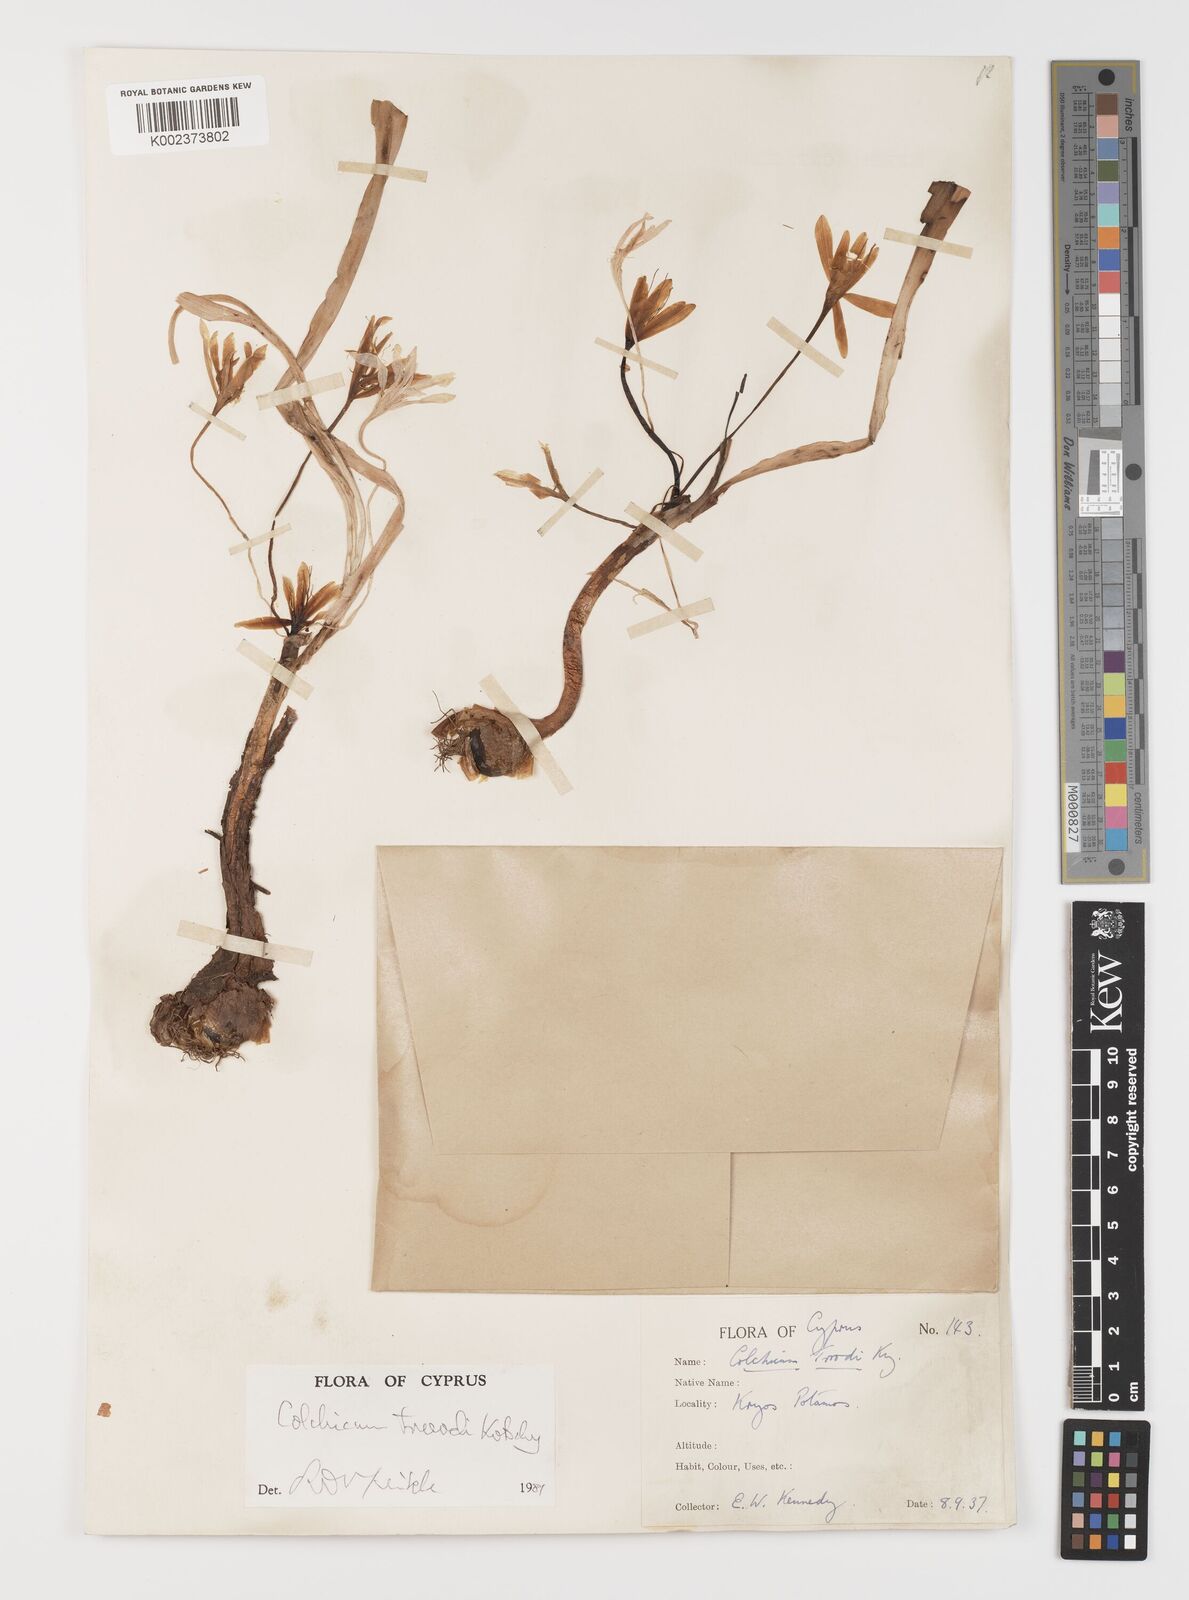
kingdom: Plantae
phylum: Tracheophyta
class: Liliopsida
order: Liliales
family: Colchicaceae
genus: Colchicum
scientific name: Colchicum troodi
